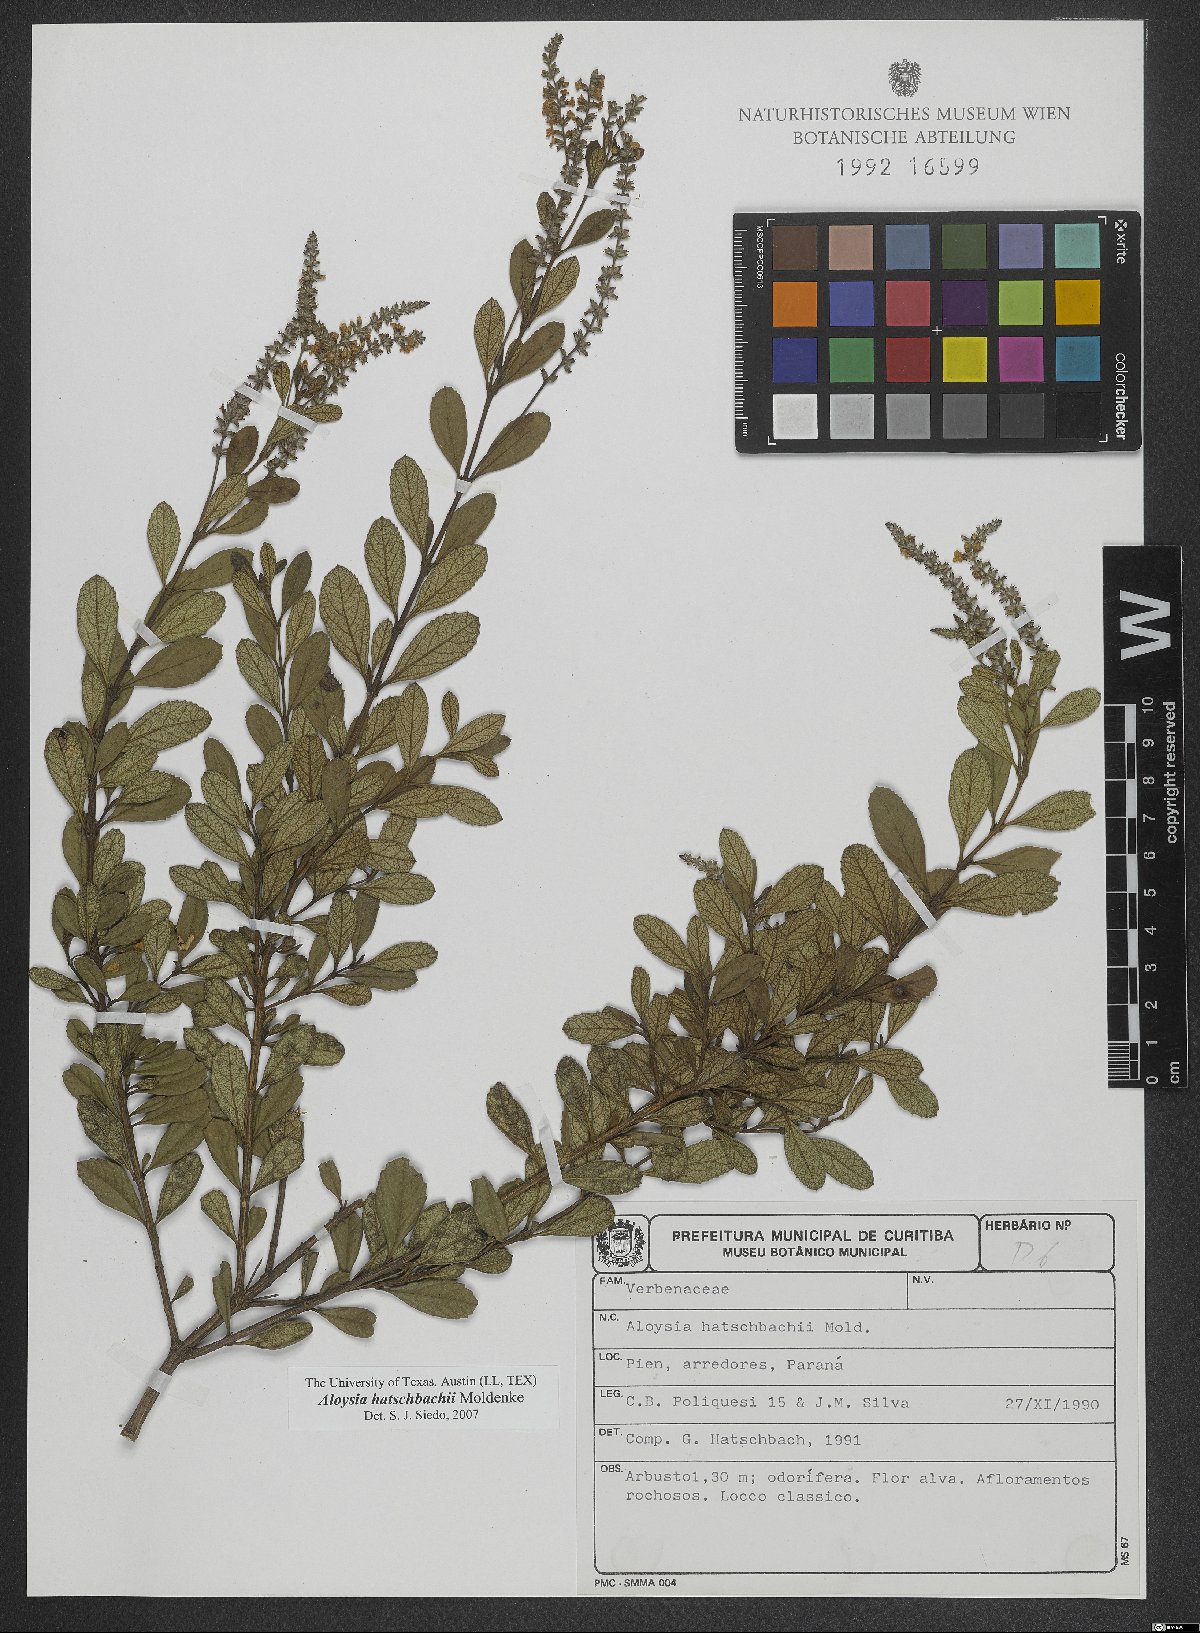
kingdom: Plantae
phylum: Tracheophyta
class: Magnoliopsida
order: Lamiales
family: Verbenaceae
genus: Aloysia
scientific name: Aloysia hatschbachii
